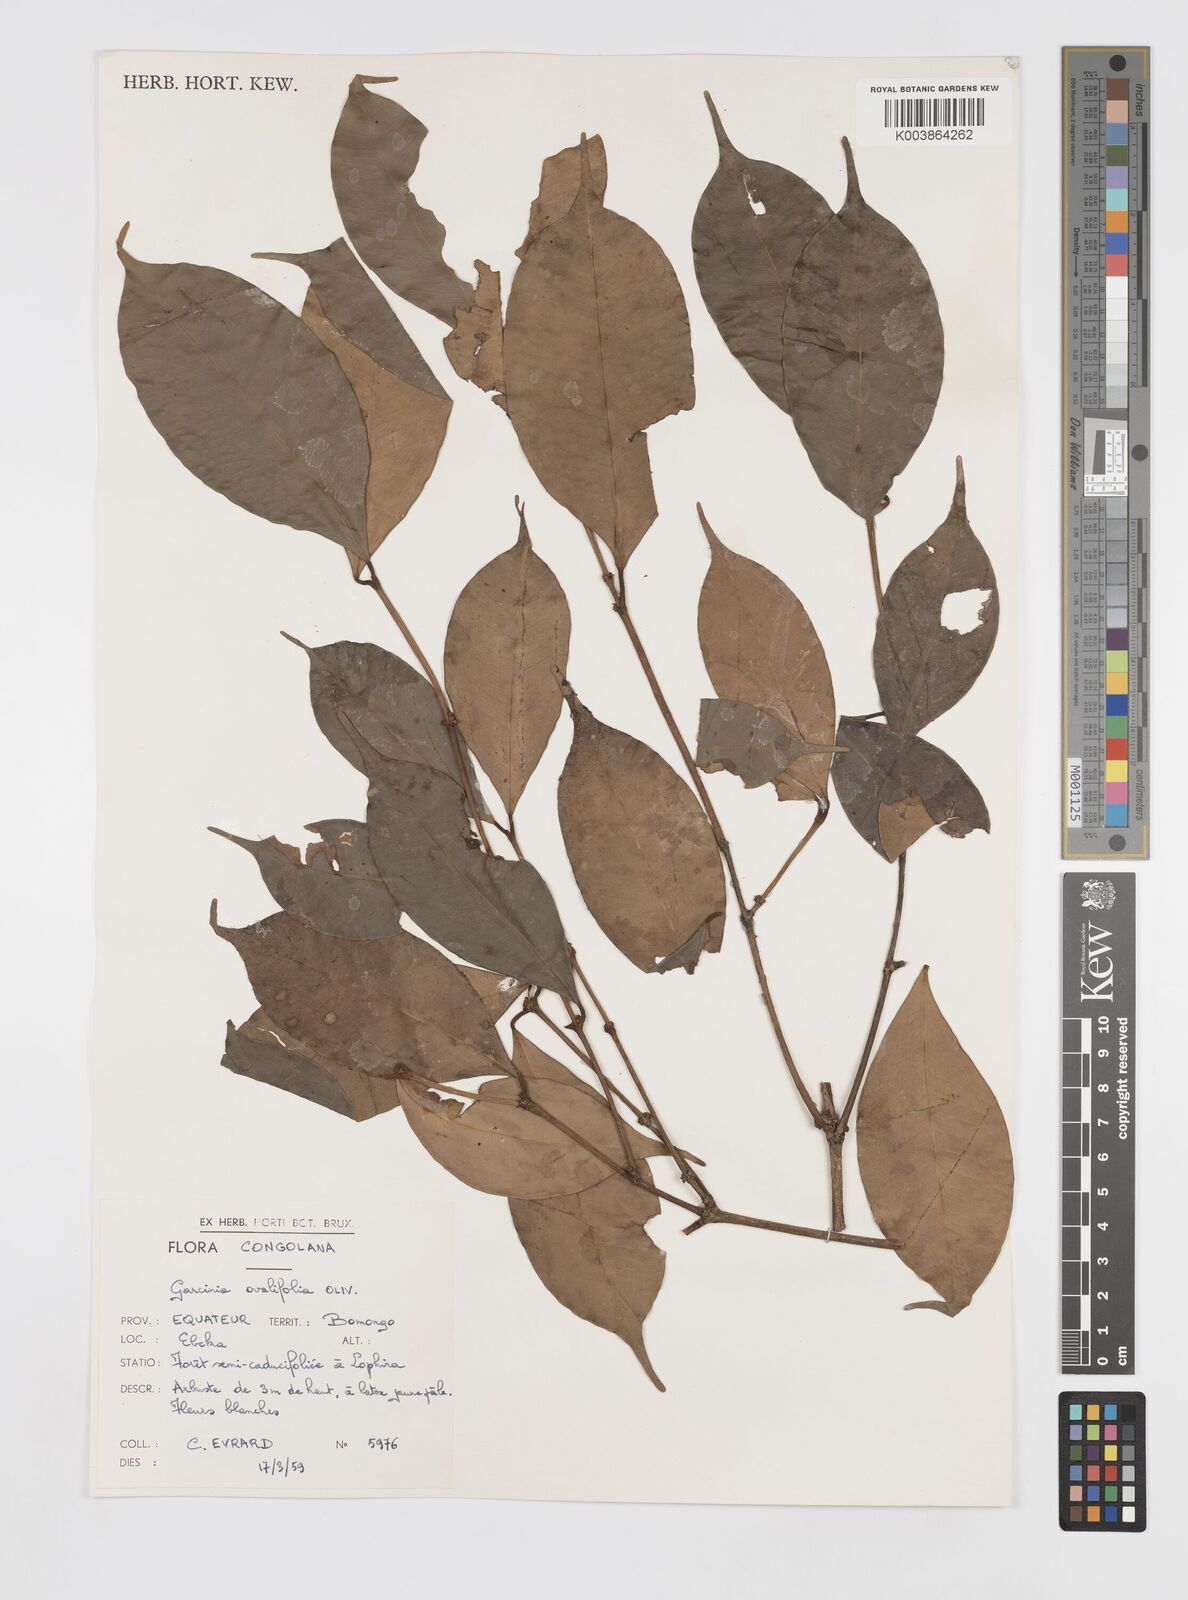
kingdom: Plantae
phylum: Tracheophyta
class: Magnoliopsida
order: Malpighiales
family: Clusiaceae
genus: Garcinia
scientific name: Garcinia ovalifolia
